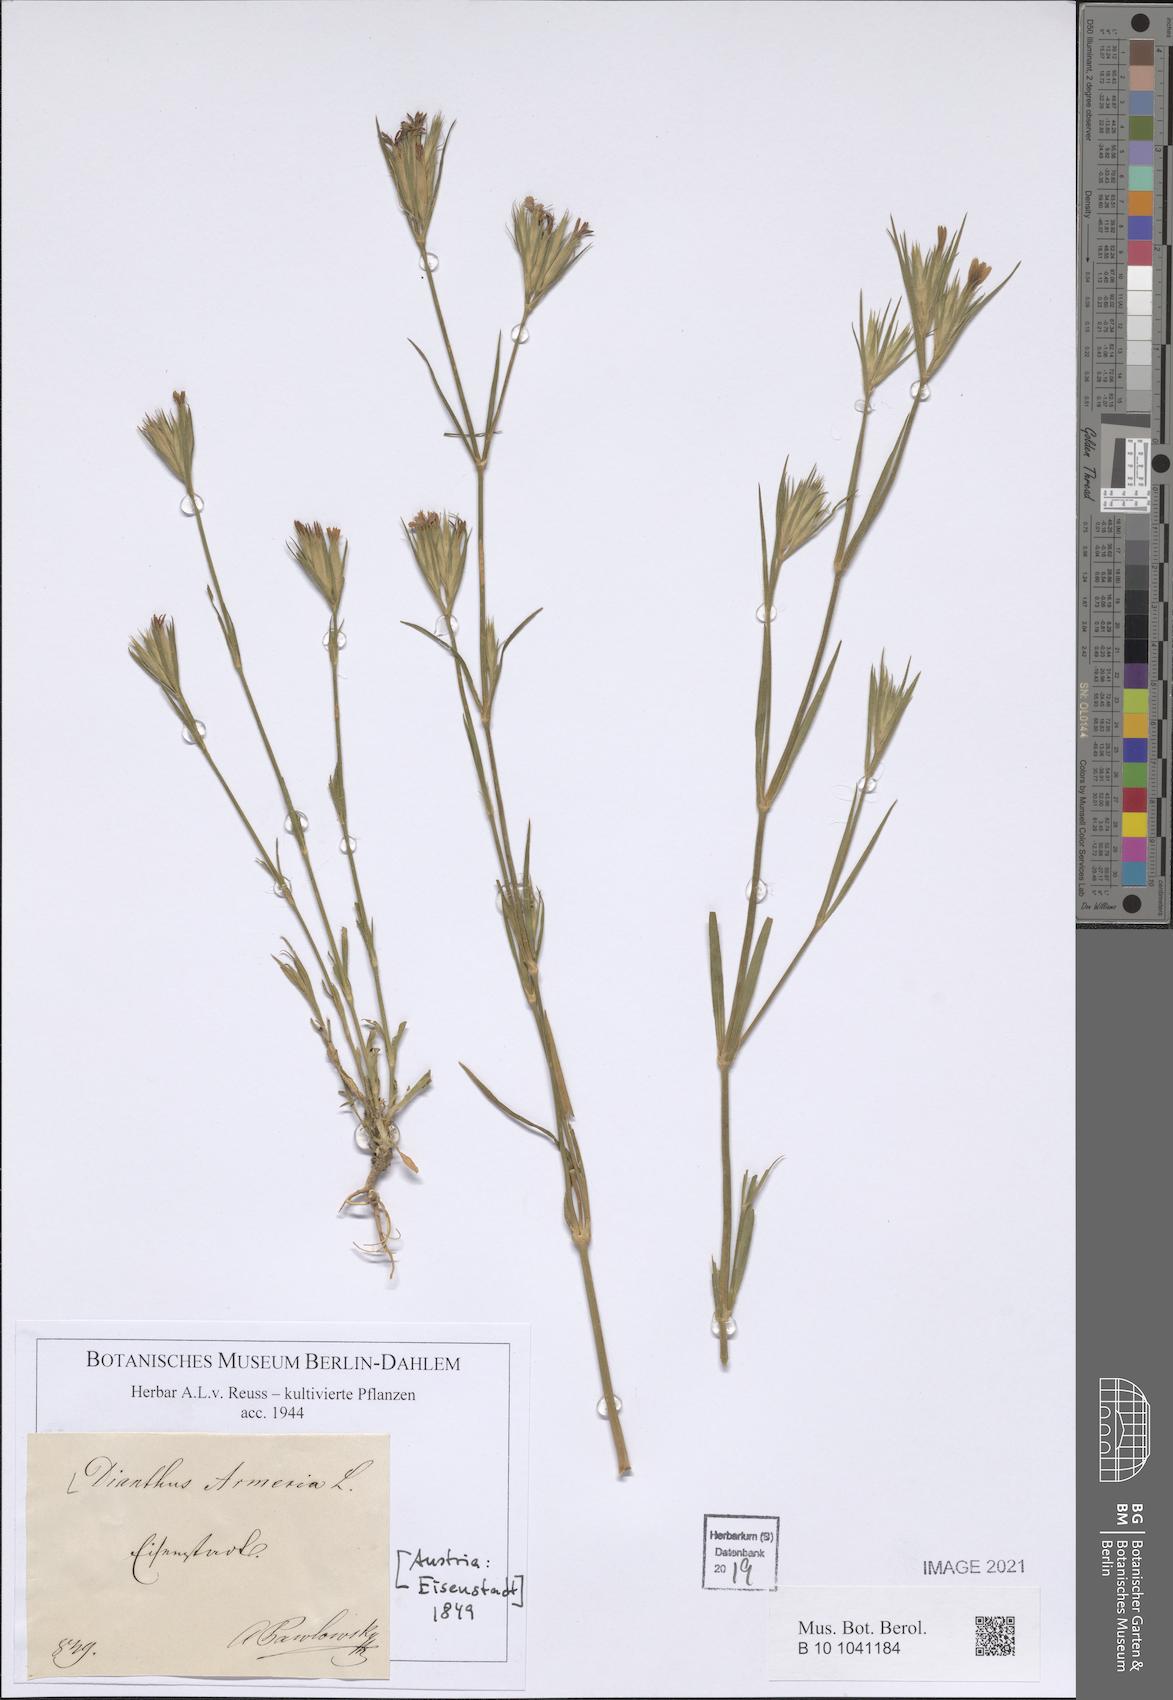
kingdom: Plantae
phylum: Tracheophyta
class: Magnoliopsida
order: Caryophyllales
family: Caryophyllaceae
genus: Dianthus
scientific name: Dianthus armeria
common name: Deptford pink
